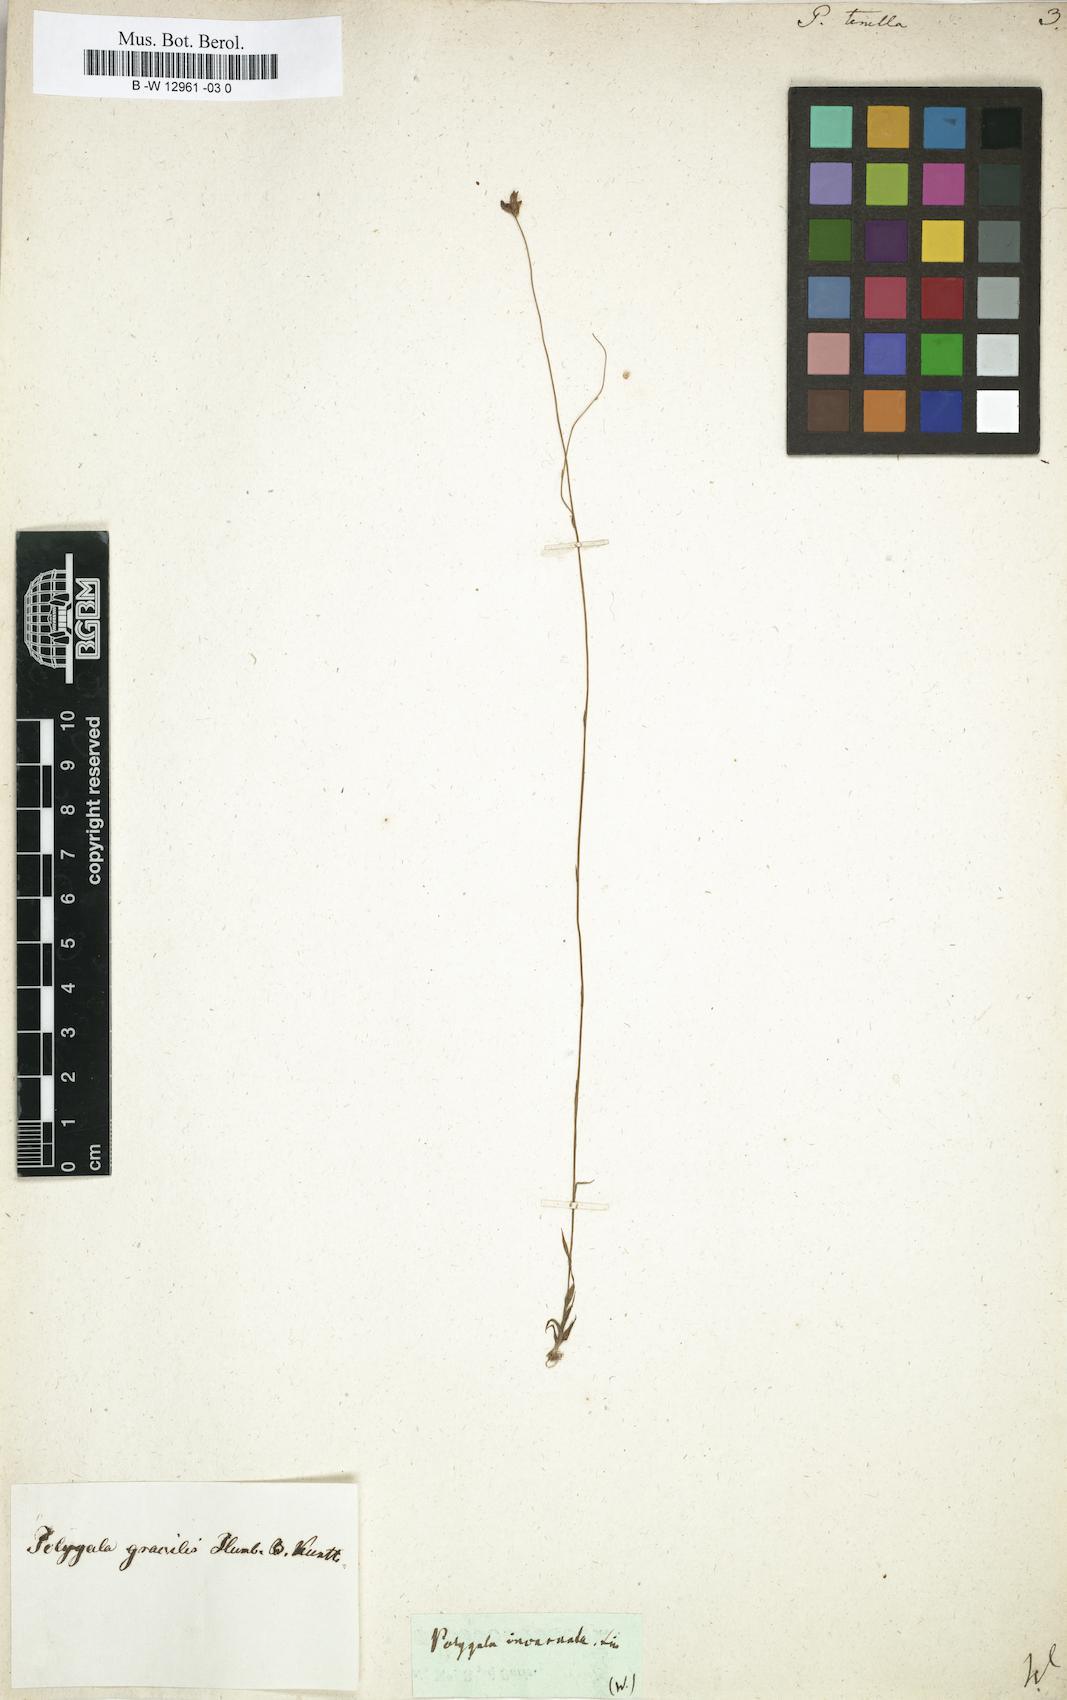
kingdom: Plantae
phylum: Tracheophyta
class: Magnoliopsida
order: Fabales
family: Polygalaceae
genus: Polygala
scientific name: Polygala tenella
